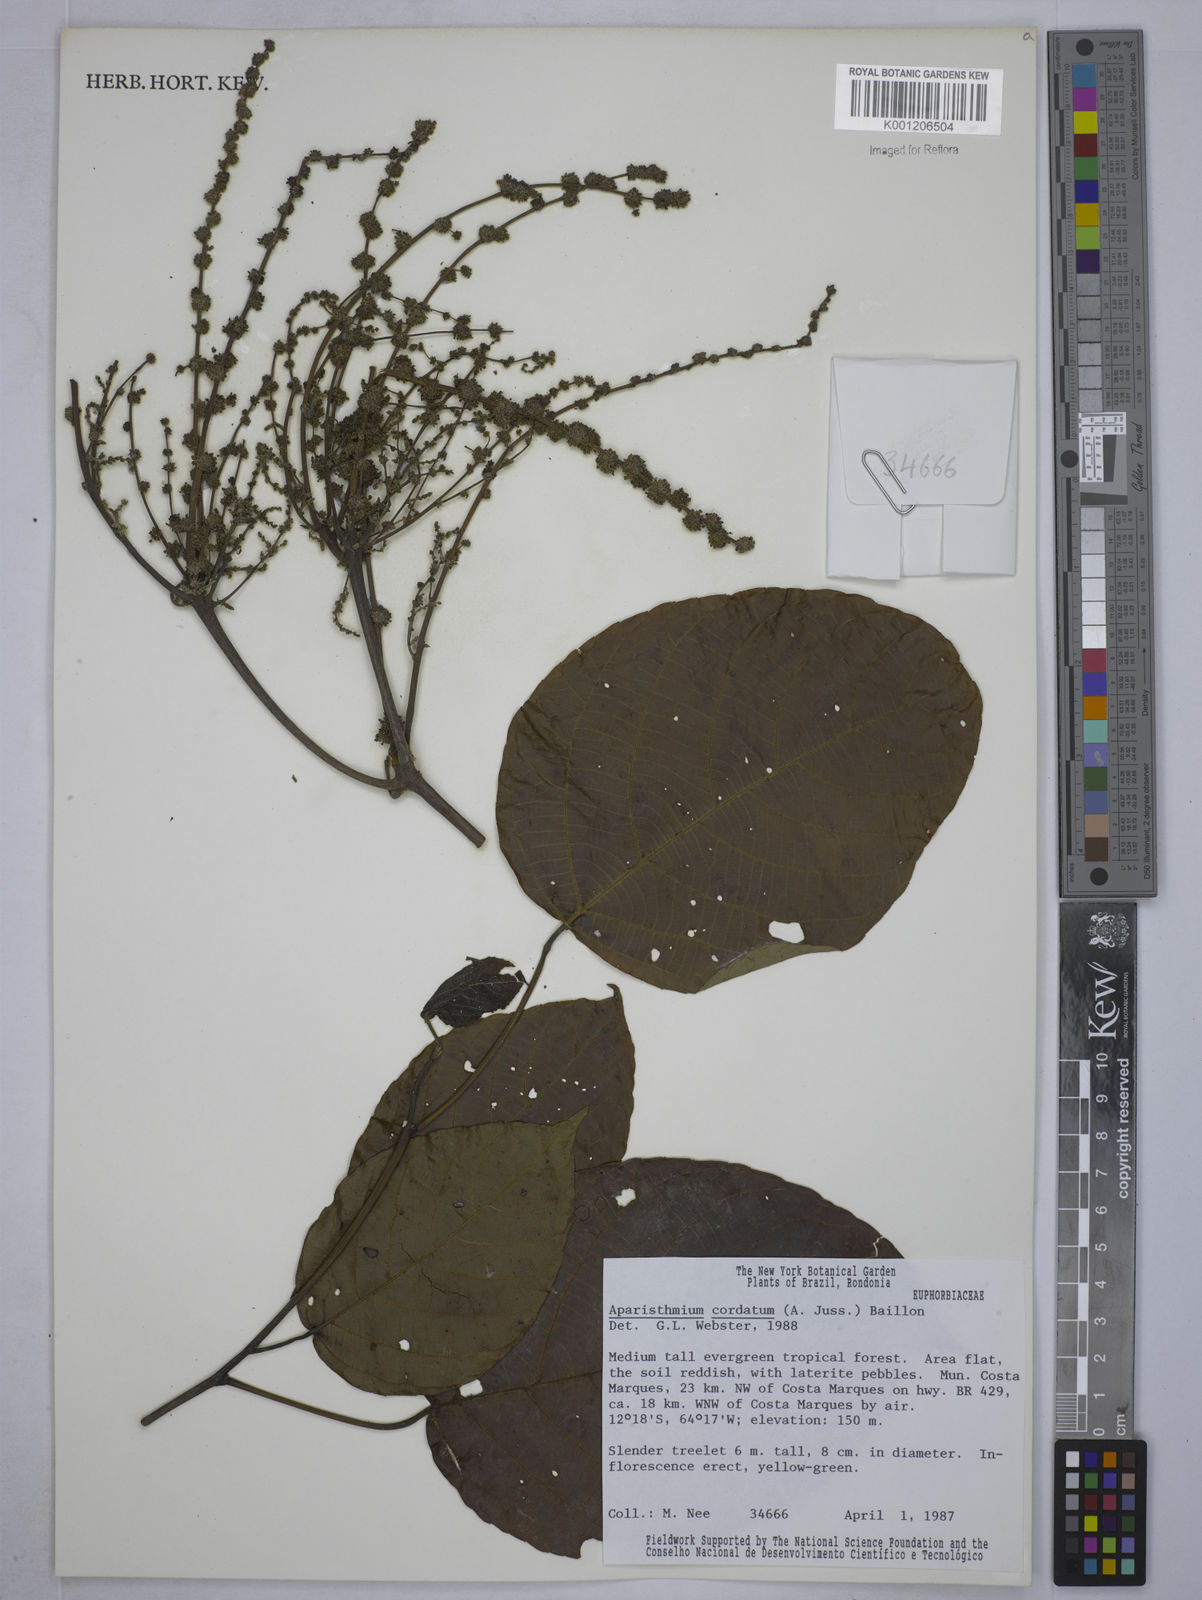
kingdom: Plantae
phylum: Tracheophyta
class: Magnoliopsida
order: Malpighiales
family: Euphorbiaceae
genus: Aparisthmium
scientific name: Aparisthmium cordatum
